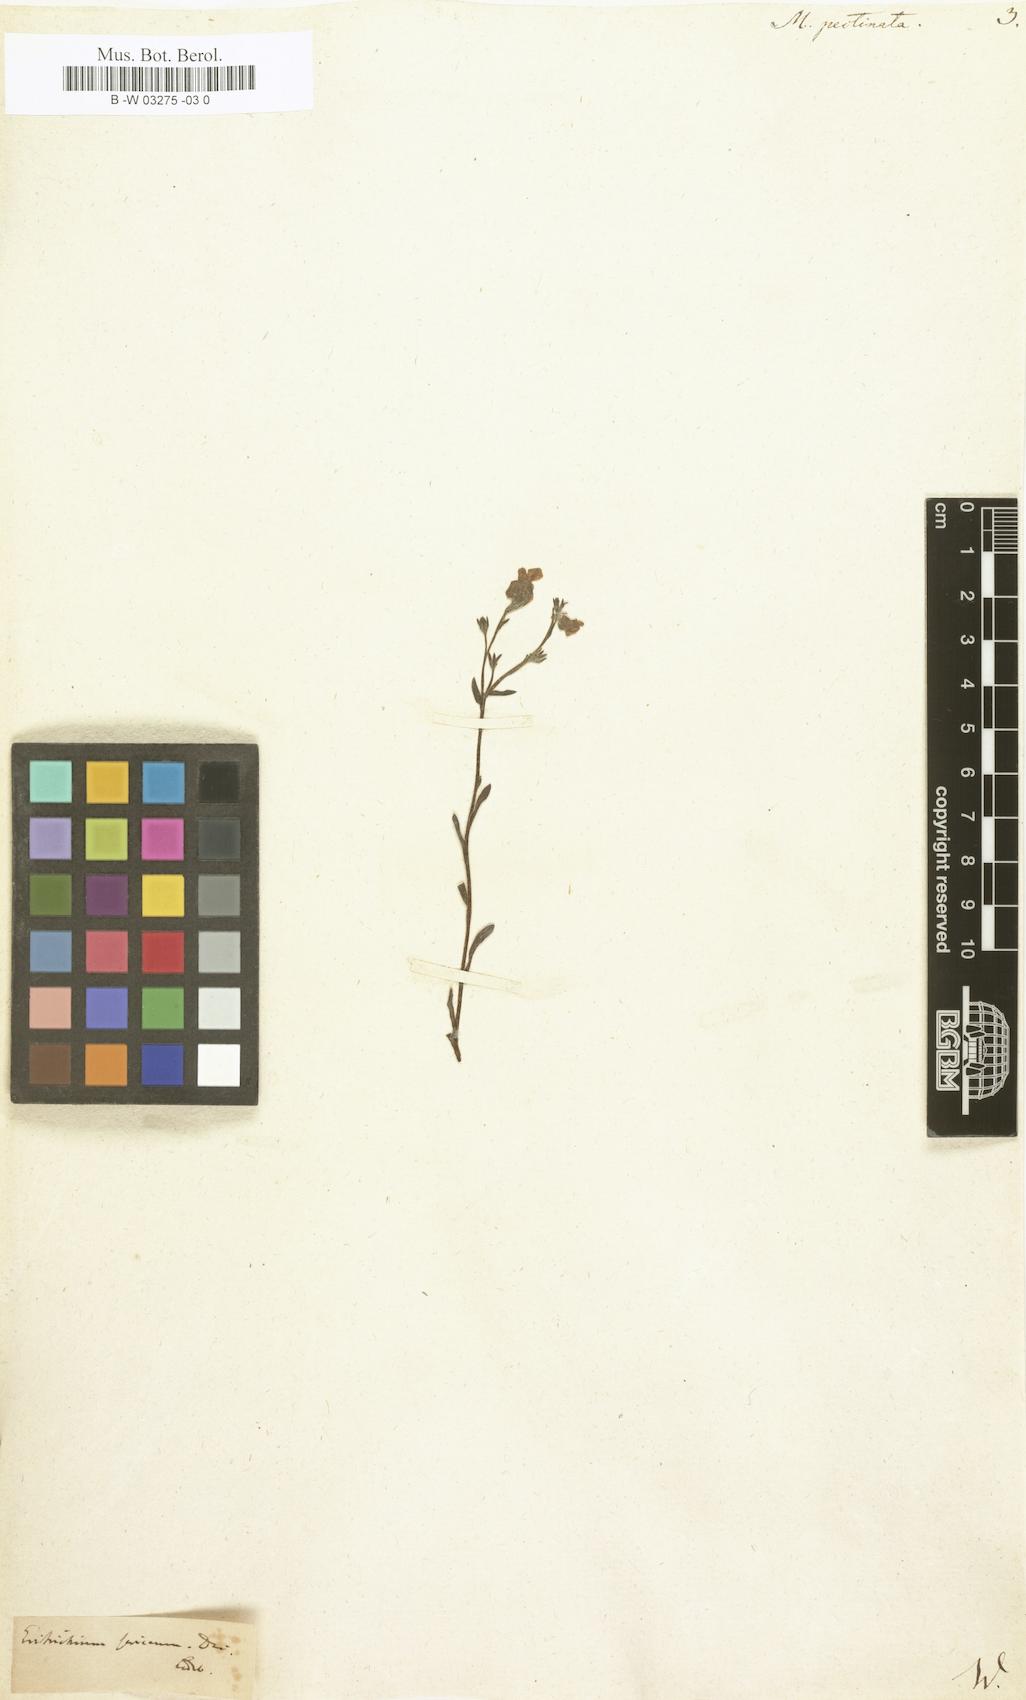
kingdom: Plantae
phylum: Tracheophyta
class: Magnoliopsida
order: Boraginales
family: Boraginaceae
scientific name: Boraginaceae
